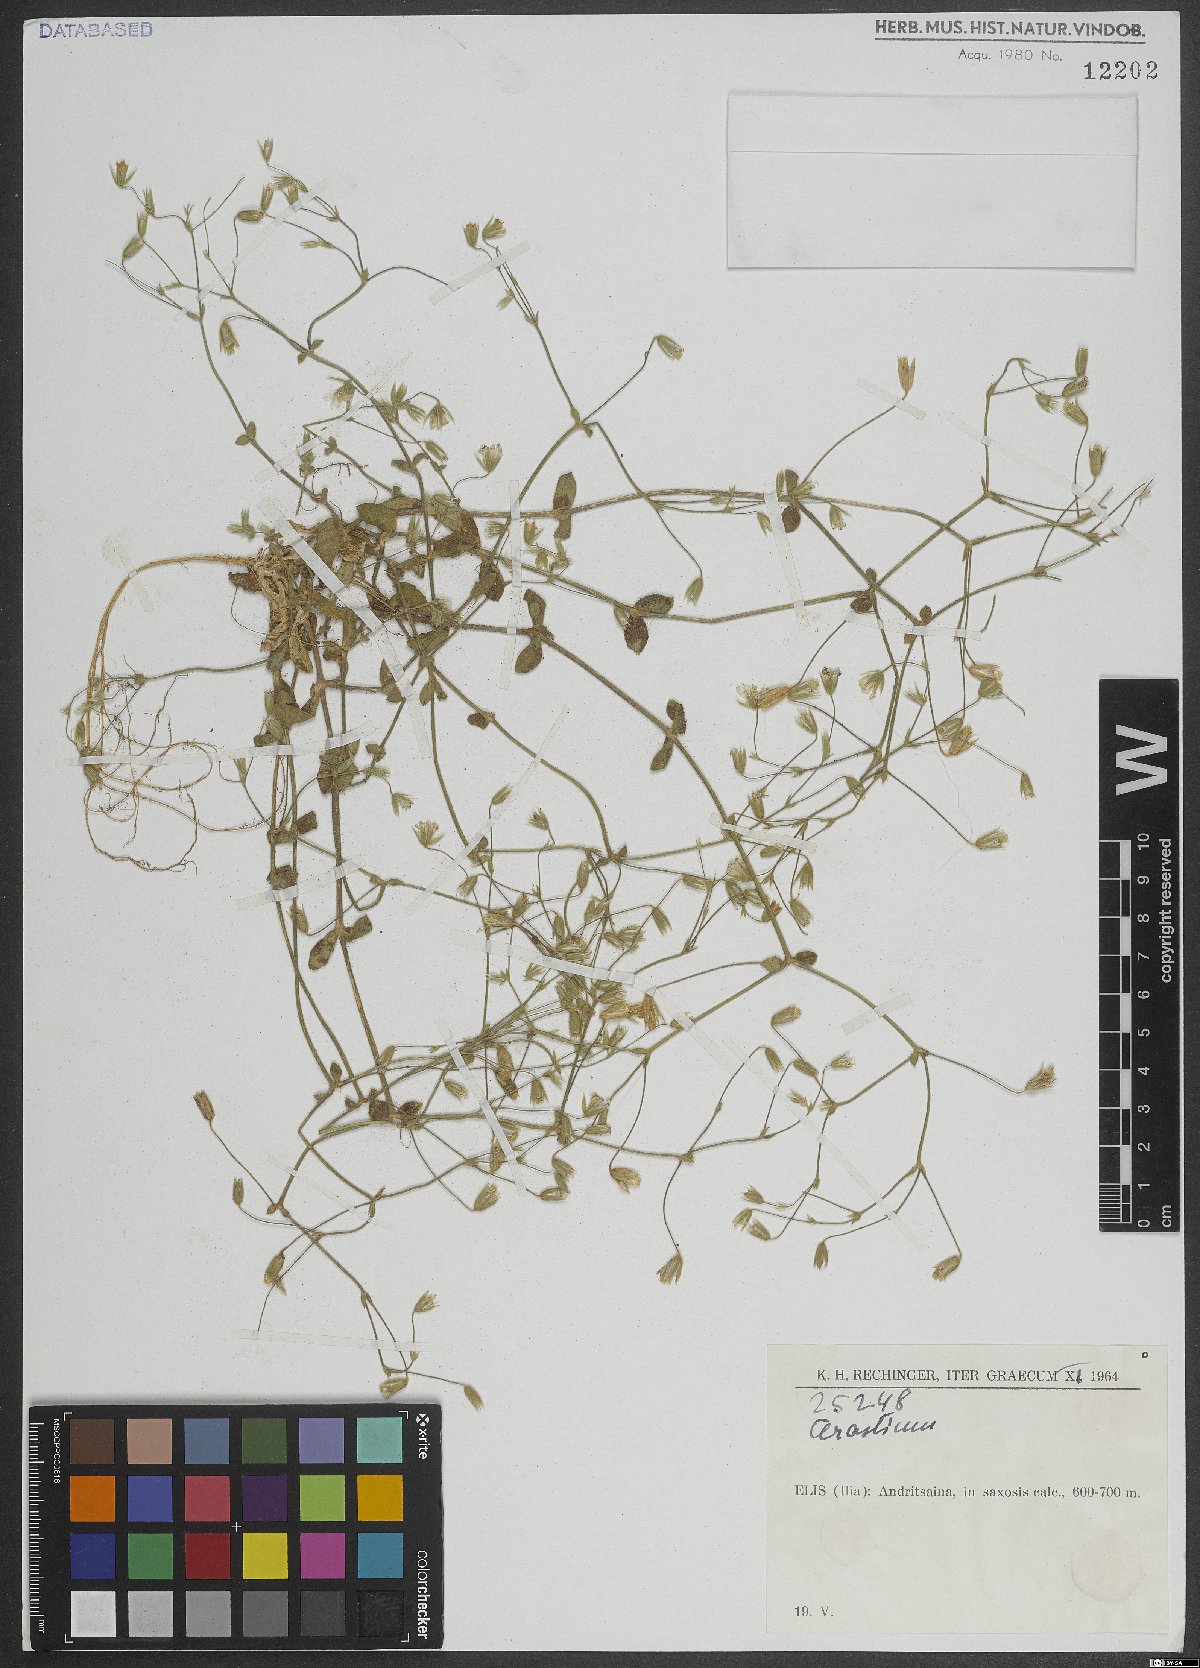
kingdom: Plantae
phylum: Tracheophyta
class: Magnoliopsida
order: Caryophyllales
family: Caryophyllaceae
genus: Cerastium
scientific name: Cerastium
